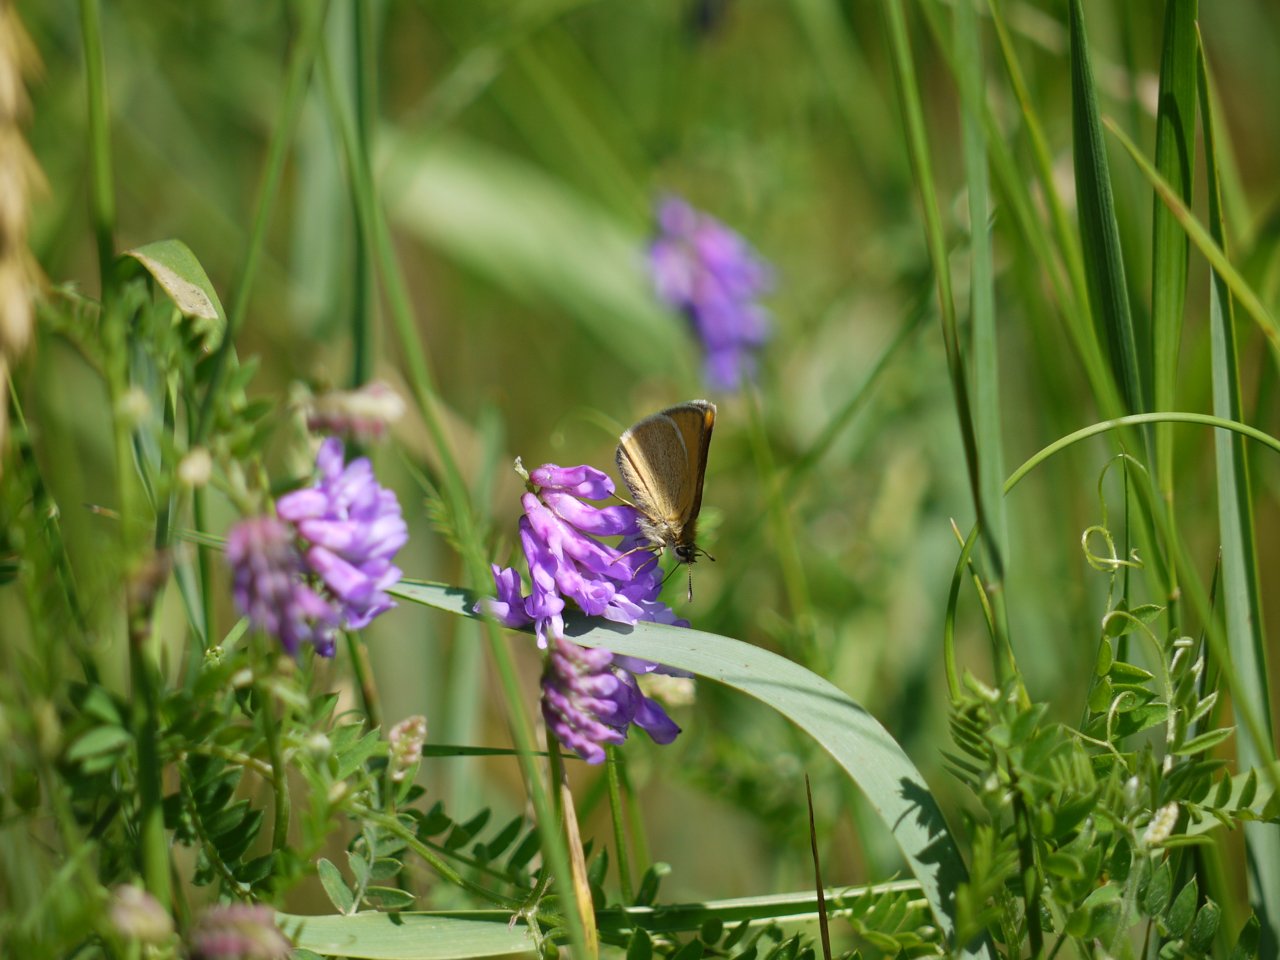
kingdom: Animalia
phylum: Arthropoda
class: Insecta
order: Lepidoptera
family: Hesperiidae
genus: Thymelicus
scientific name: Thymelicus lineola
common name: European Skipper
